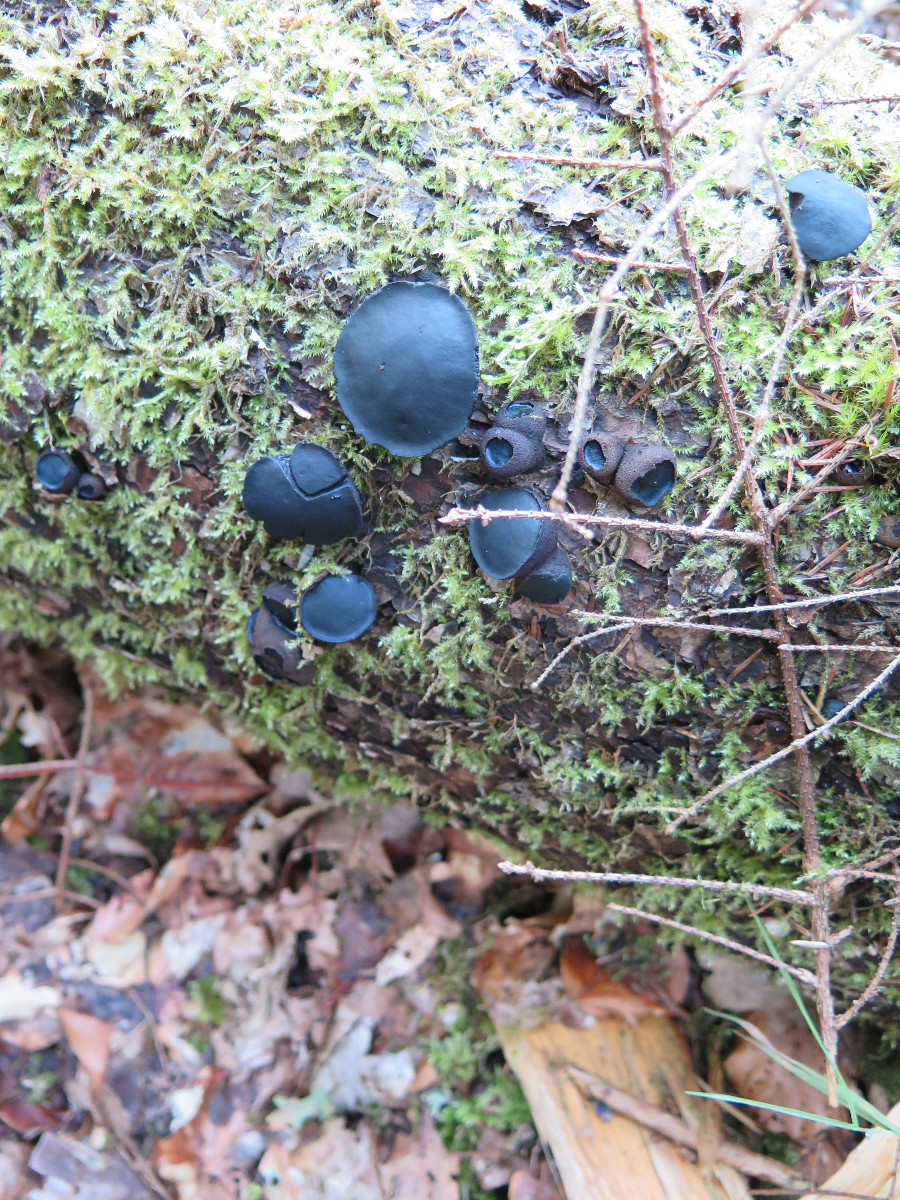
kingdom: Fungi
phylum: Ascomycota
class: Leotiomycetes
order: Phacidiales
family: Phacidiaceae
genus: Bulgaria
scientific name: Bulgaria inquinans
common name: afsmittende topsvamp
